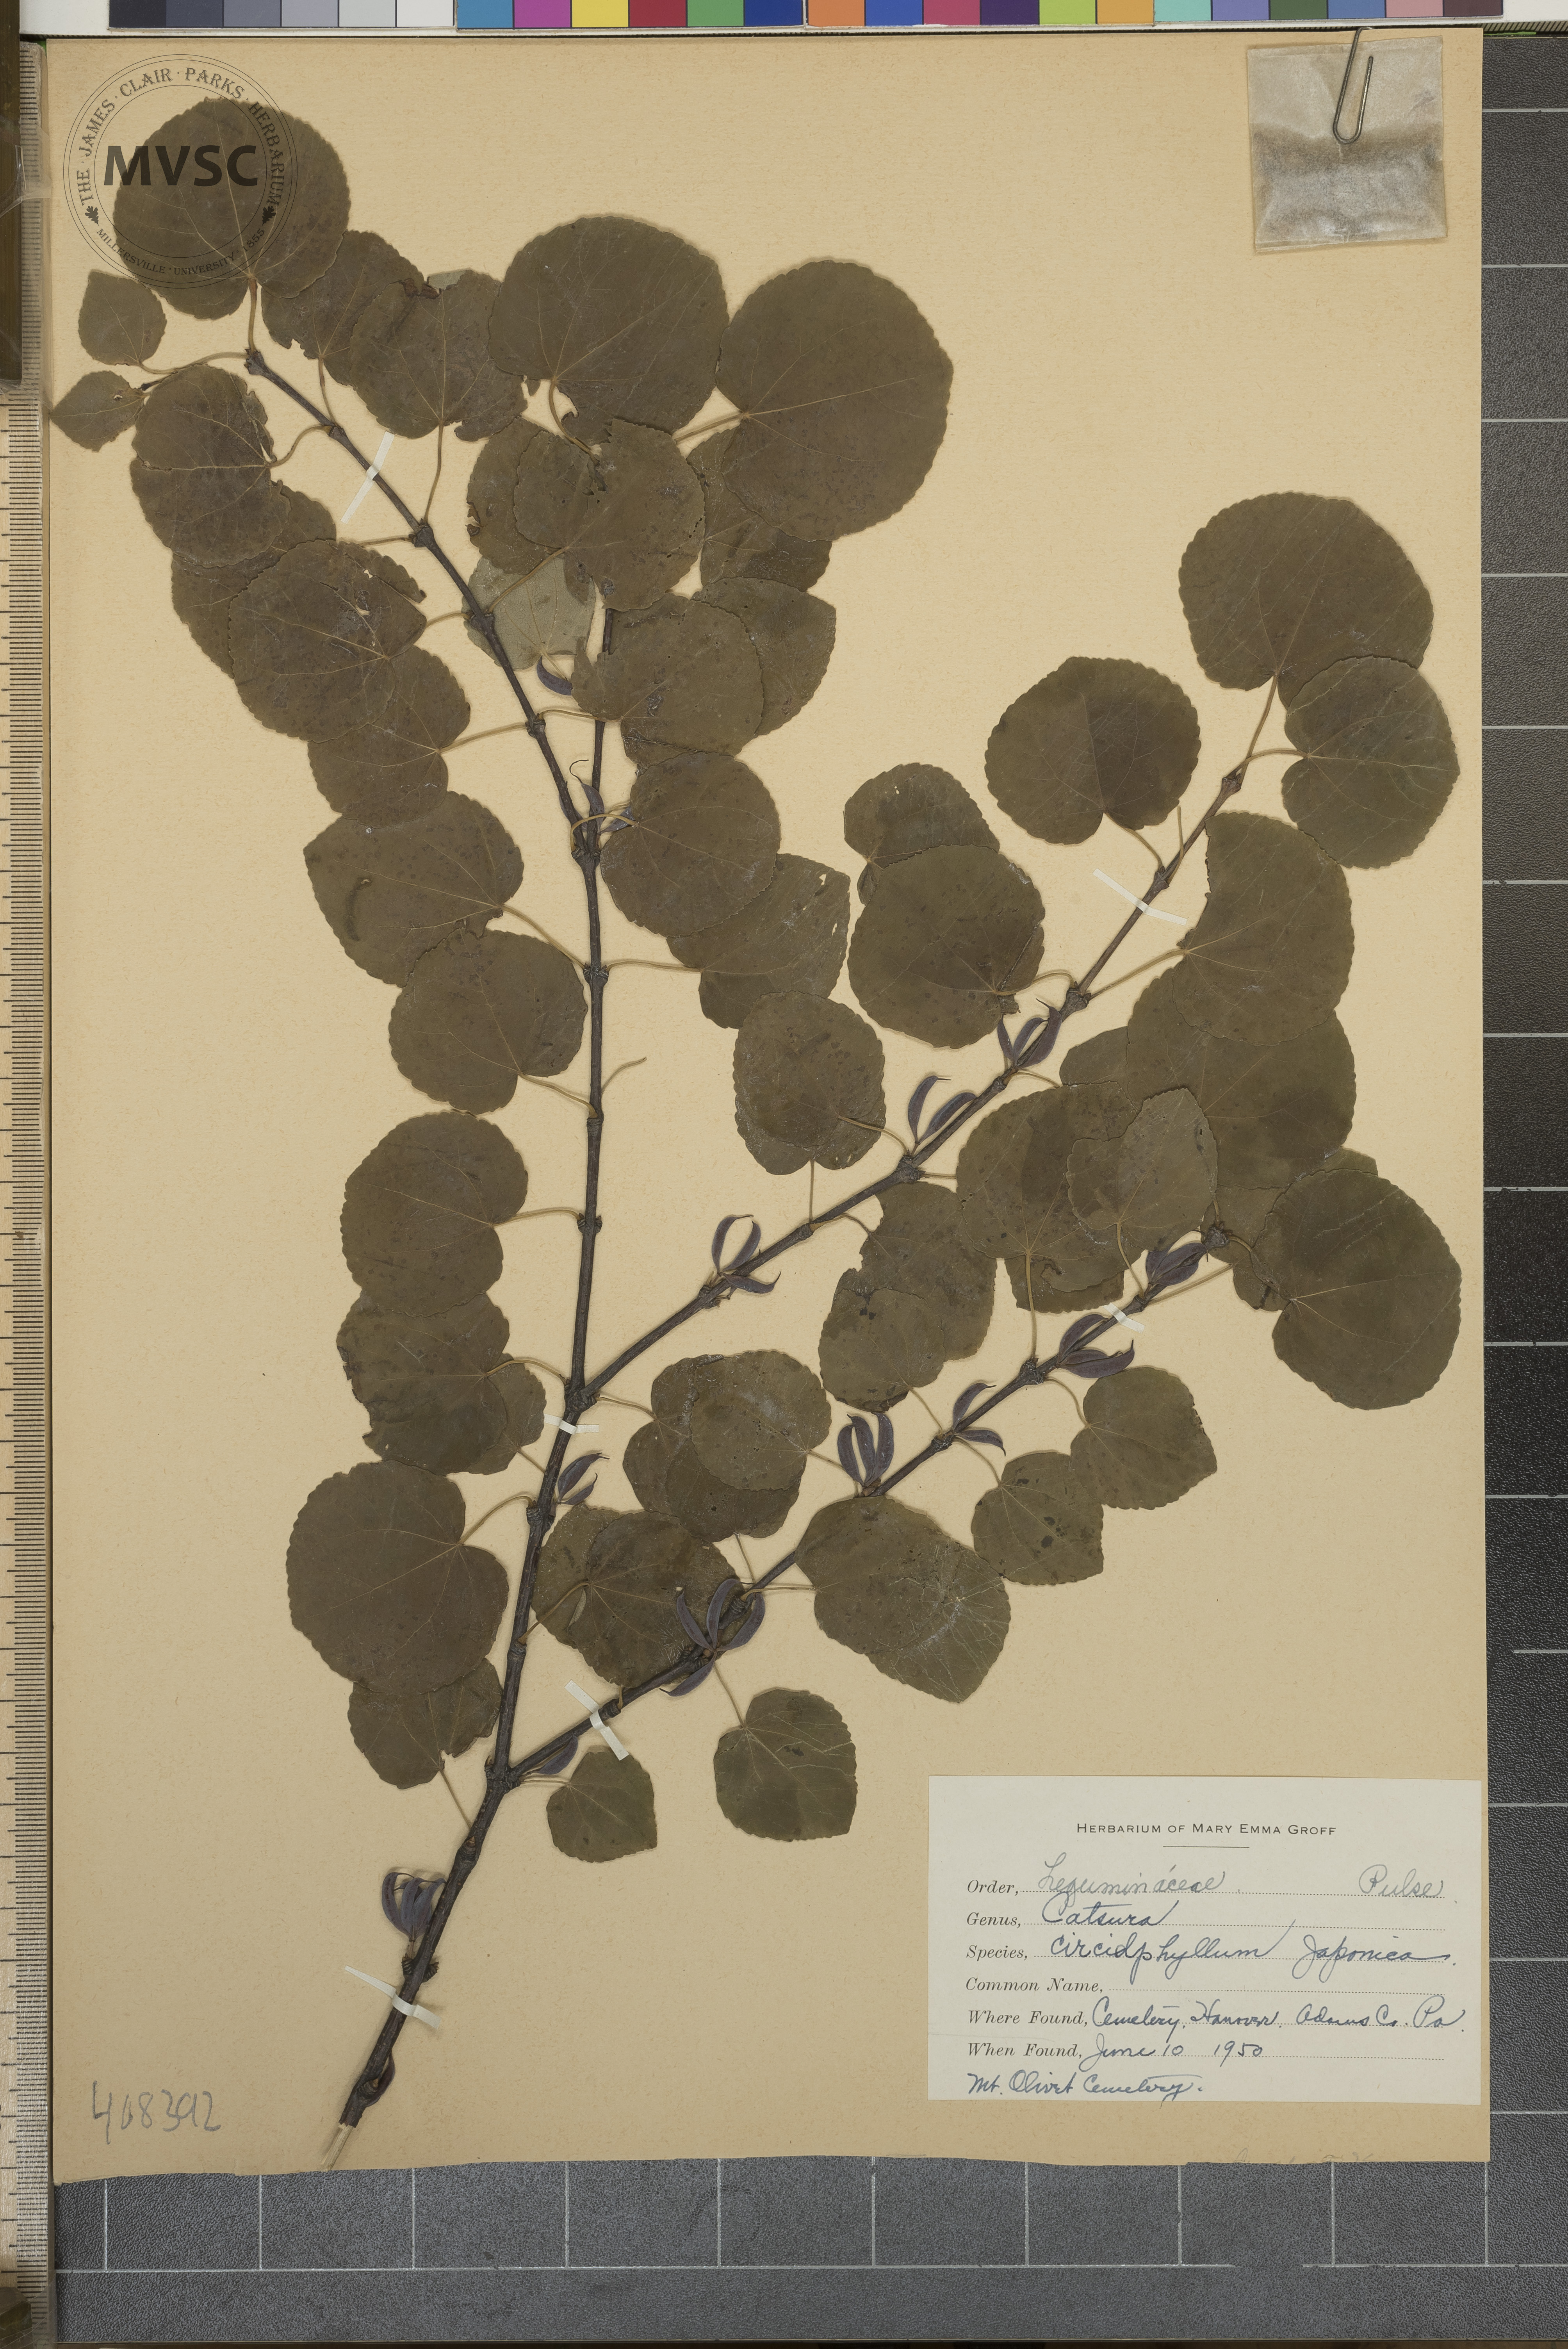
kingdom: Plantae
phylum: Tracheophyta
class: Magnoliopsida
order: Saxifragales
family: Cercidiphyllaceae
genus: Cercidiphyllum
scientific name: Cercidiphyllum japonicum
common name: Katsura tree
